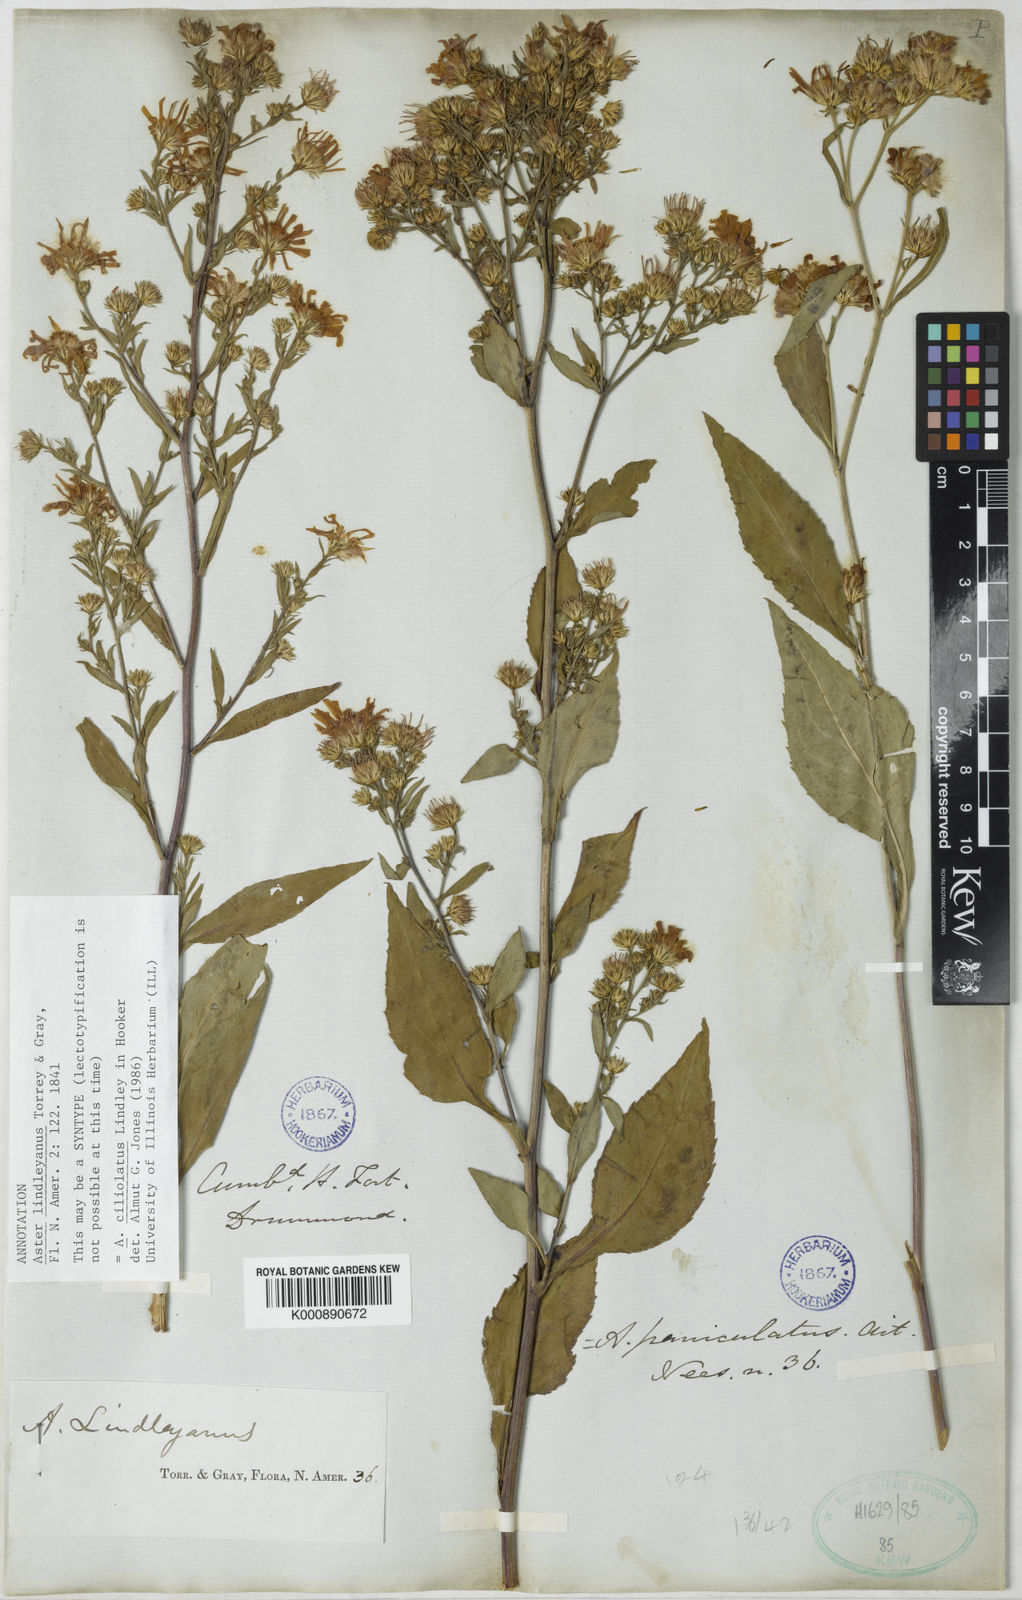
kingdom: Plantae
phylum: Tracheophyta
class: Magnoliopsida
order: Asterales
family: Asteraceae
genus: Symphyotrichum
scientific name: Symphyotrichum ciliolatum
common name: Fringed blue aster
